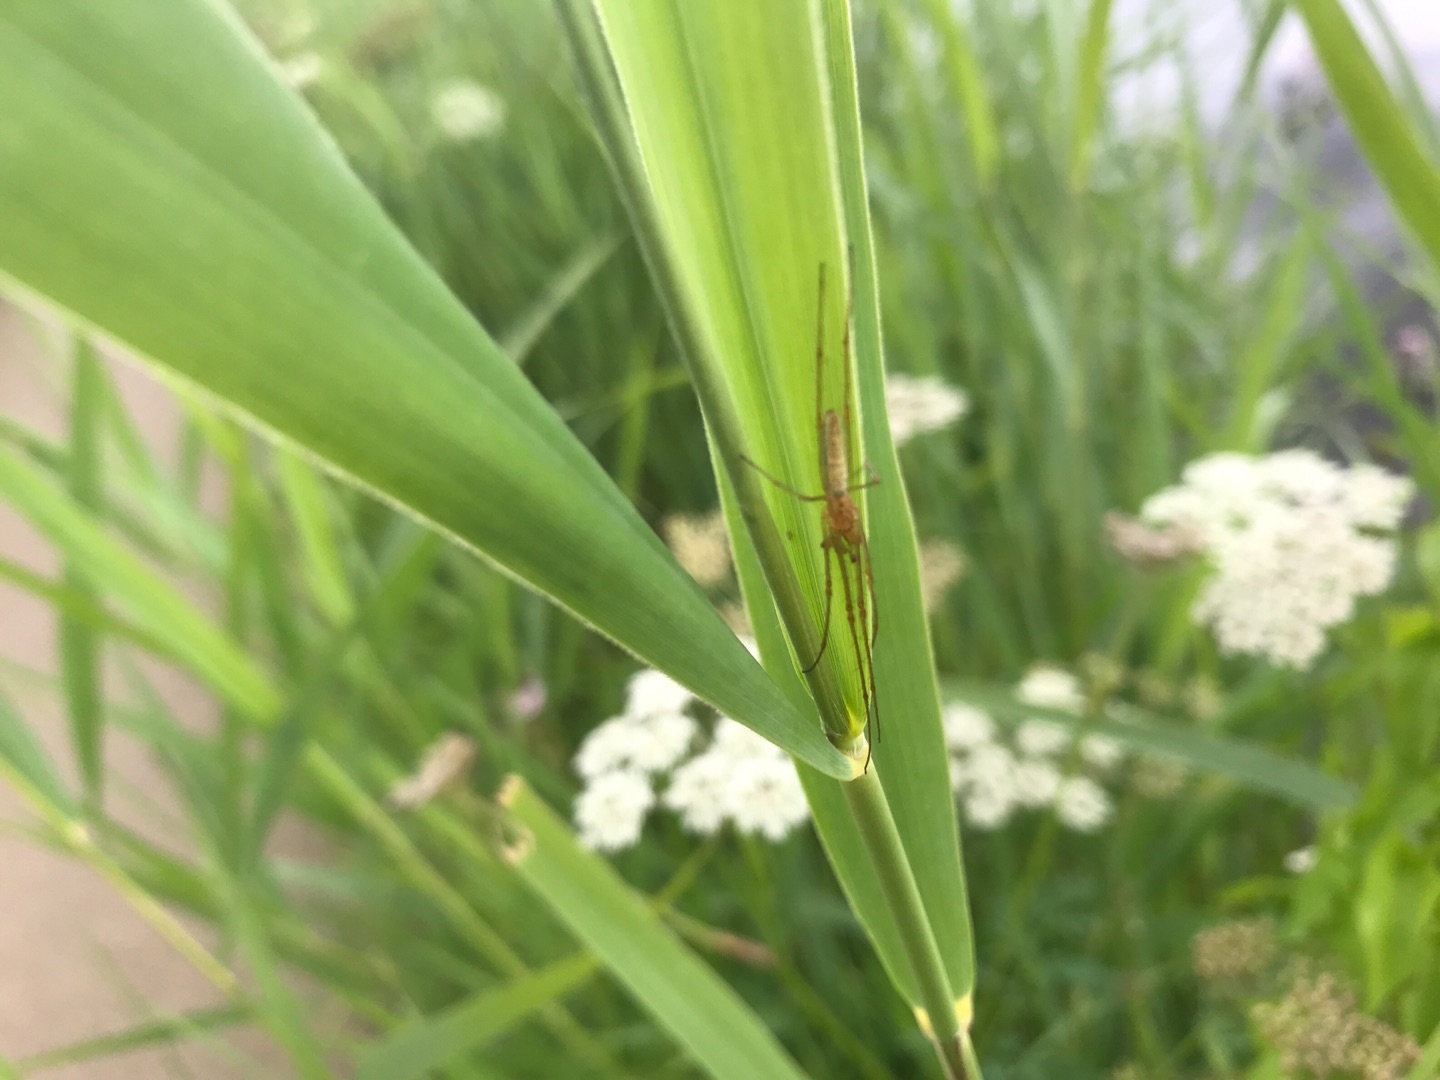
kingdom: Animalia
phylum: Arthropoda
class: Arachnida
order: Araneae
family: Tetragnathidae
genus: Tetragnatha
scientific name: Tetragnatha
